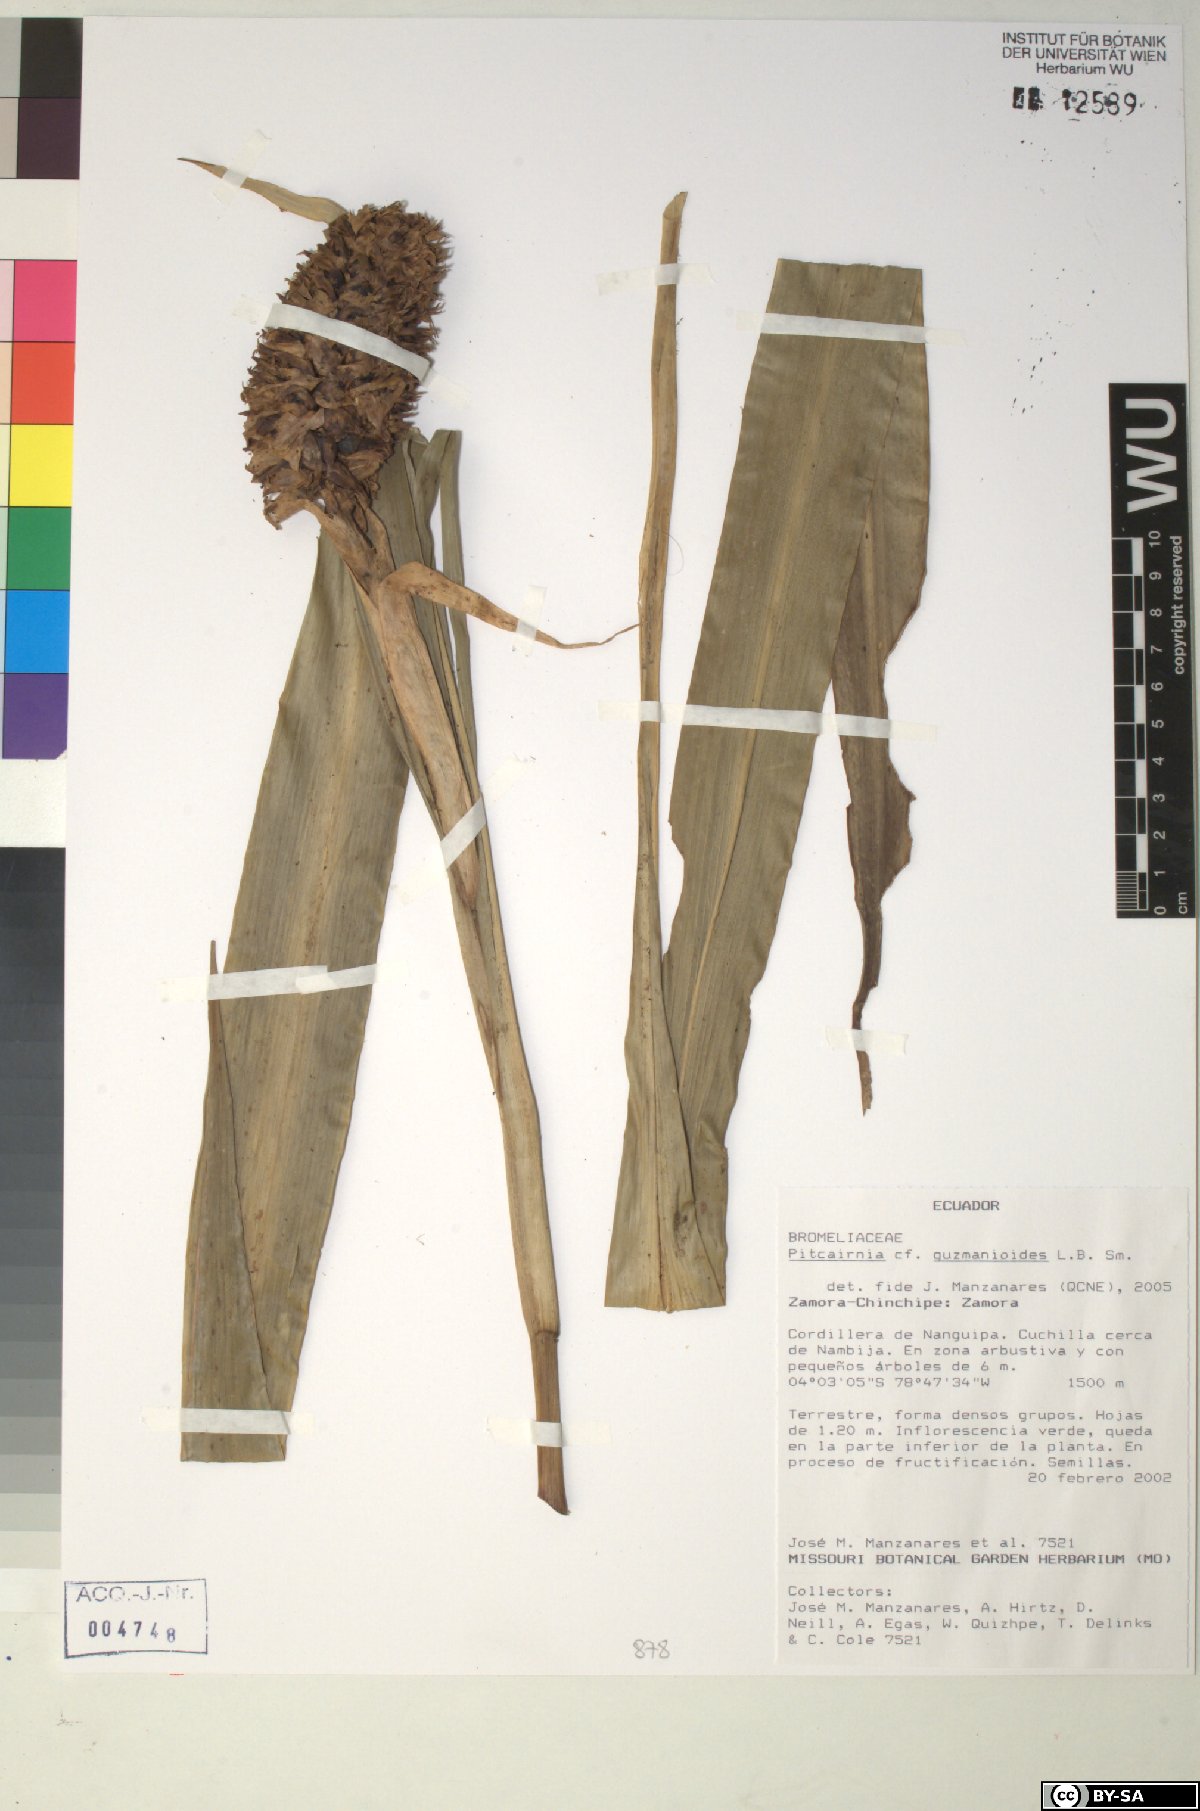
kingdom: Plantae
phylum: Tracheophyta
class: Liliopsida
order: Poales
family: Bromeliaceae
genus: Pitcairnia
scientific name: Pitcairnia guzmanioides
